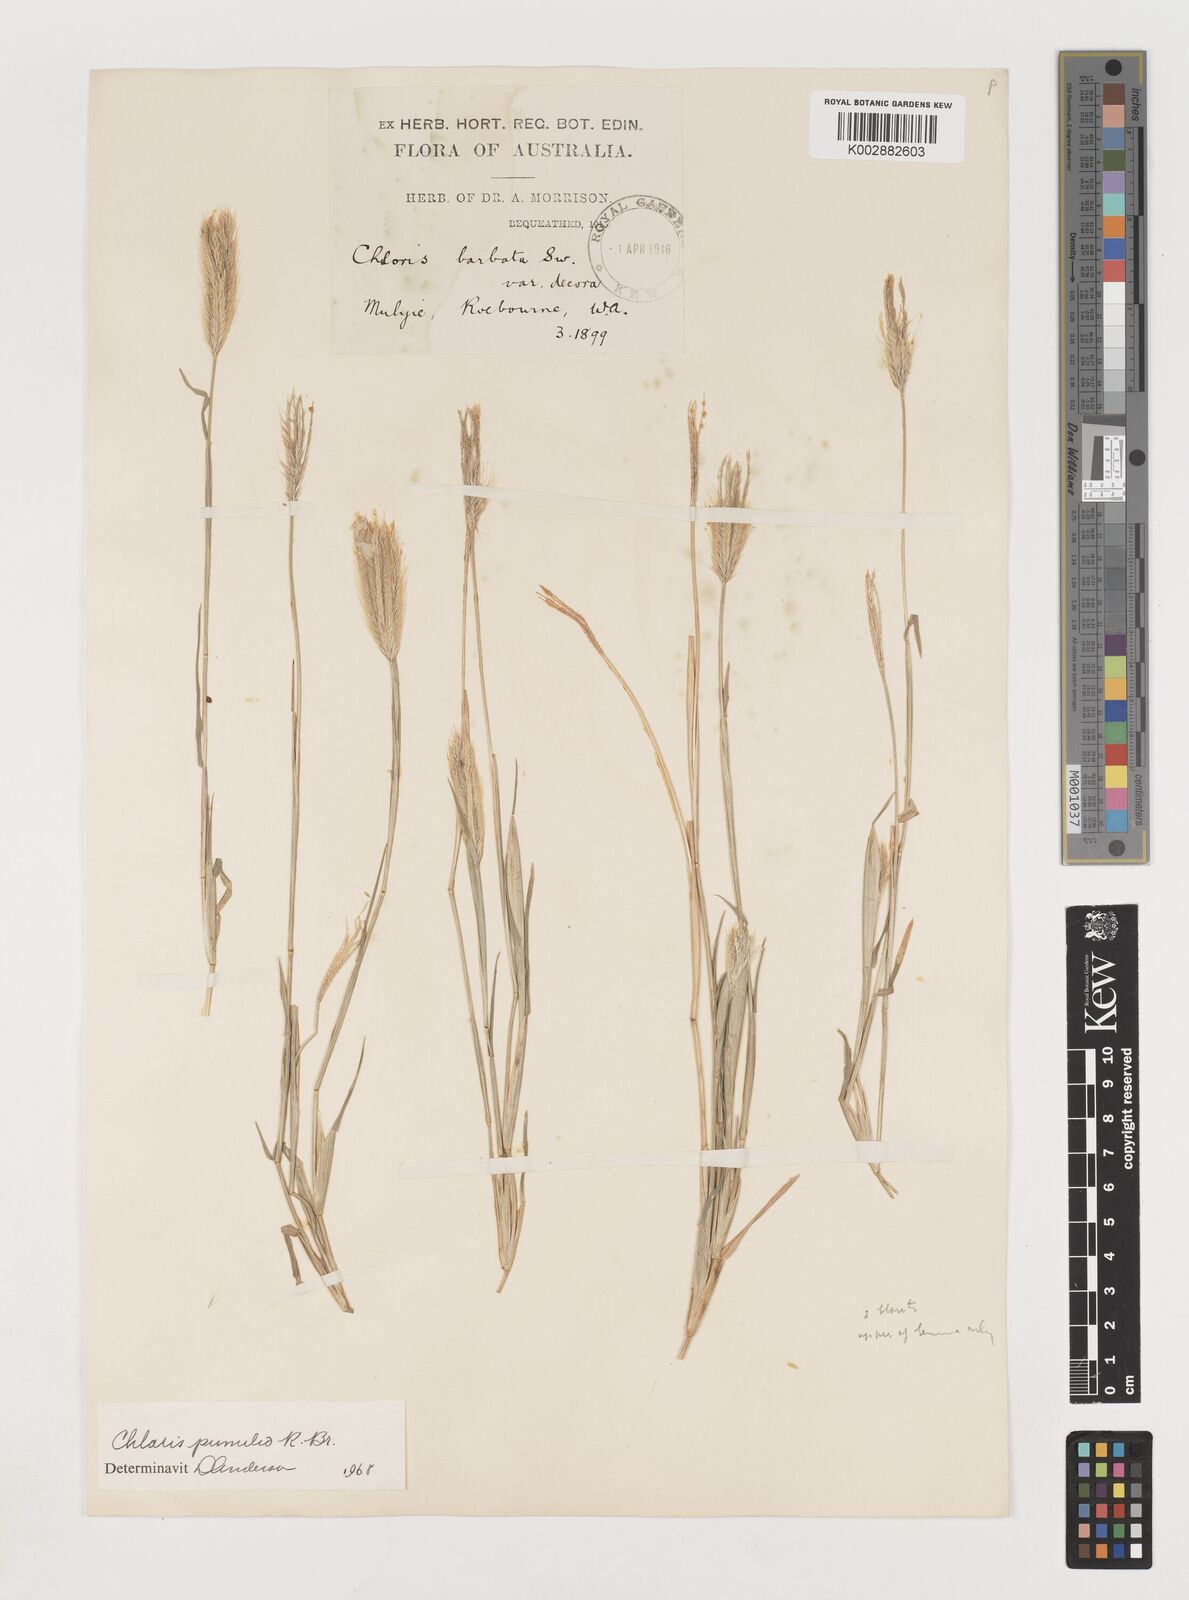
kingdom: Plantae
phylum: Tracheophyta
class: Liliopsida
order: Poales
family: Poaceae
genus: Chloris
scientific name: Chloris pumilio
